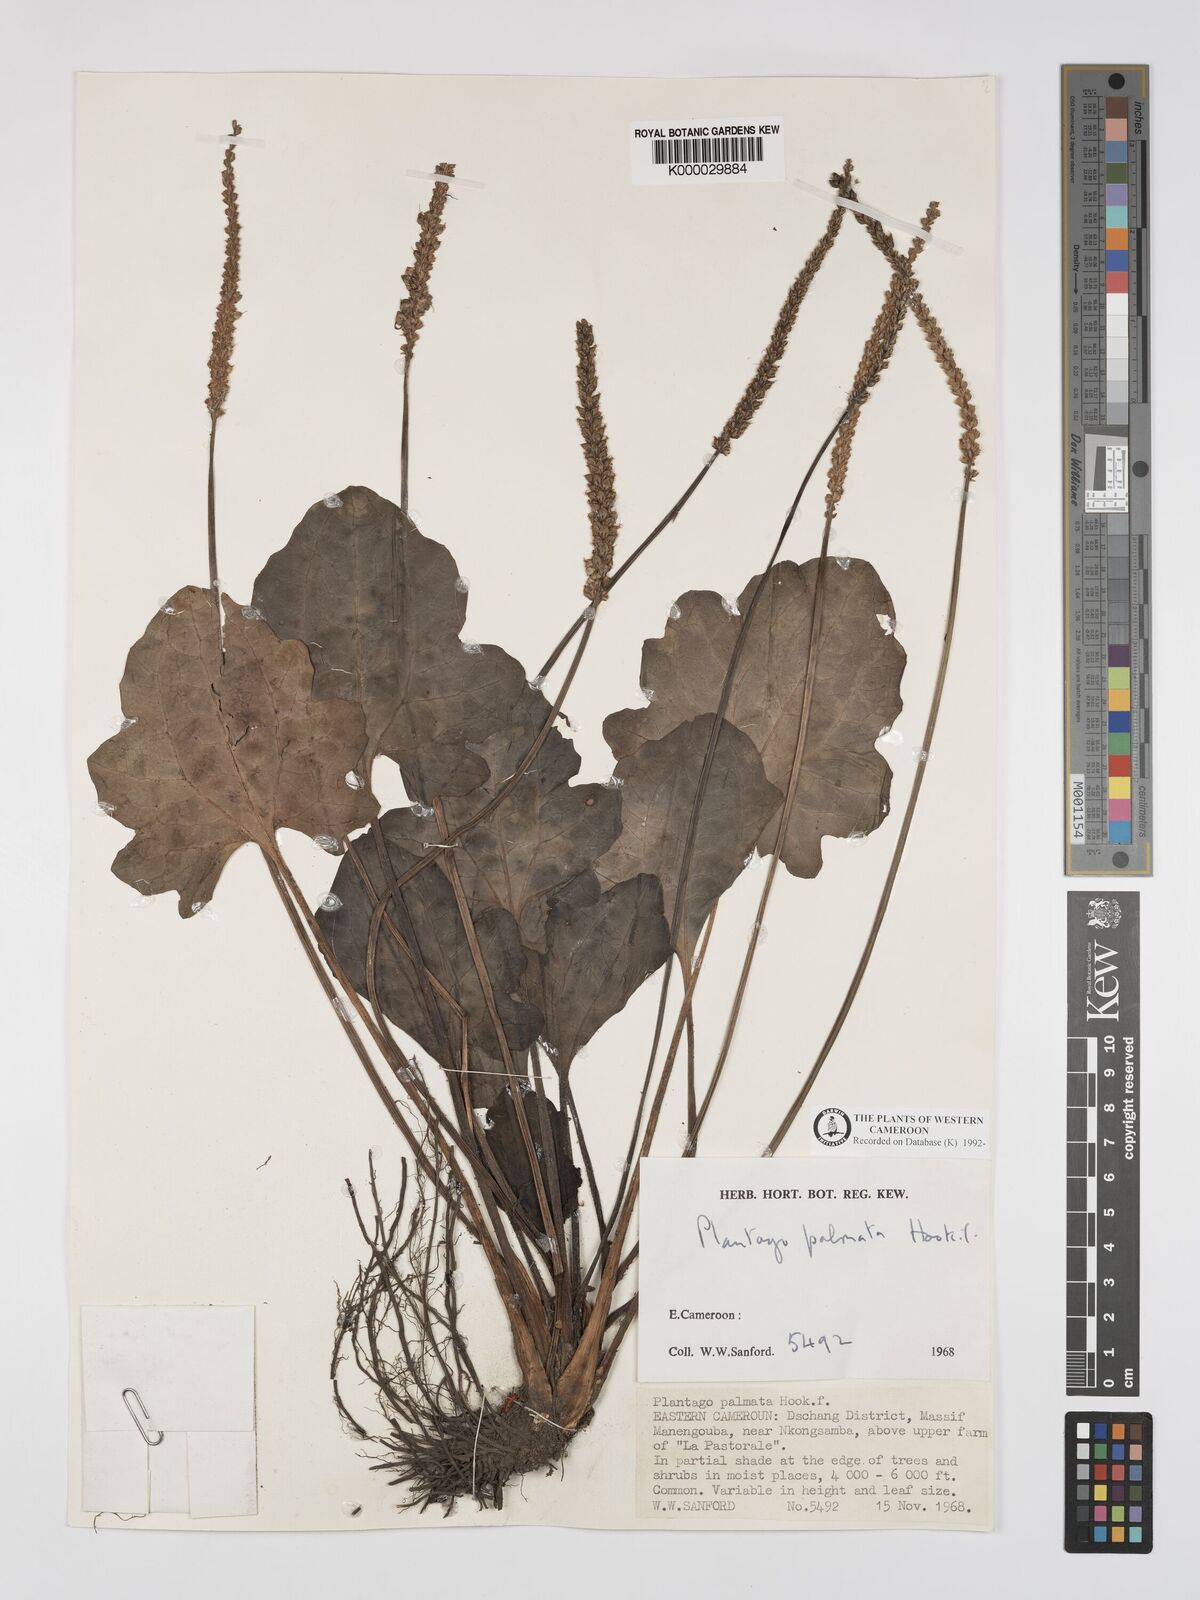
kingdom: Plantae
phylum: Tracheophyta
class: Magnoliopsida
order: Lamiales
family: Plantaginaceae
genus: Plantago
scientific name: Plantago palmata
